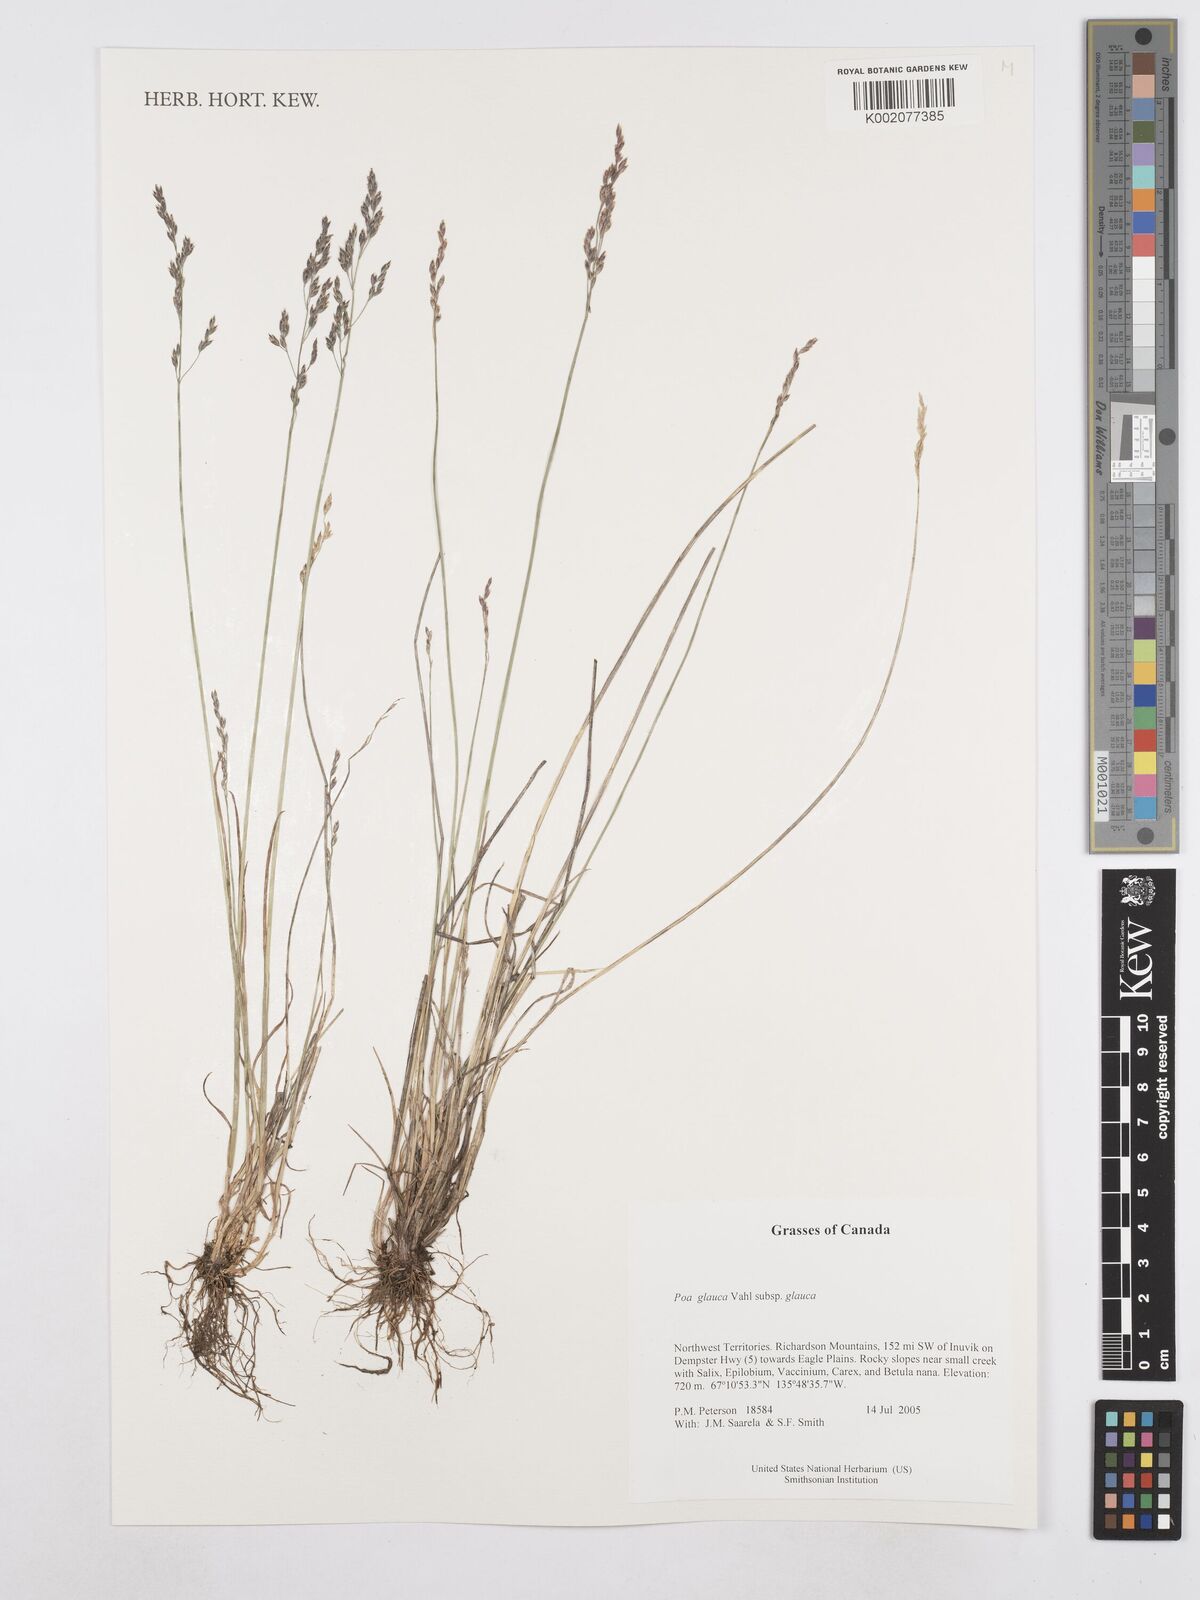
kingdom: Plantae
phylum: Tracheophyta
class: Liliopsida
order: Poales
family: Poaceae
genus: Poa
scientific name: Poa glauca
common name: Glaucous bluegrass
